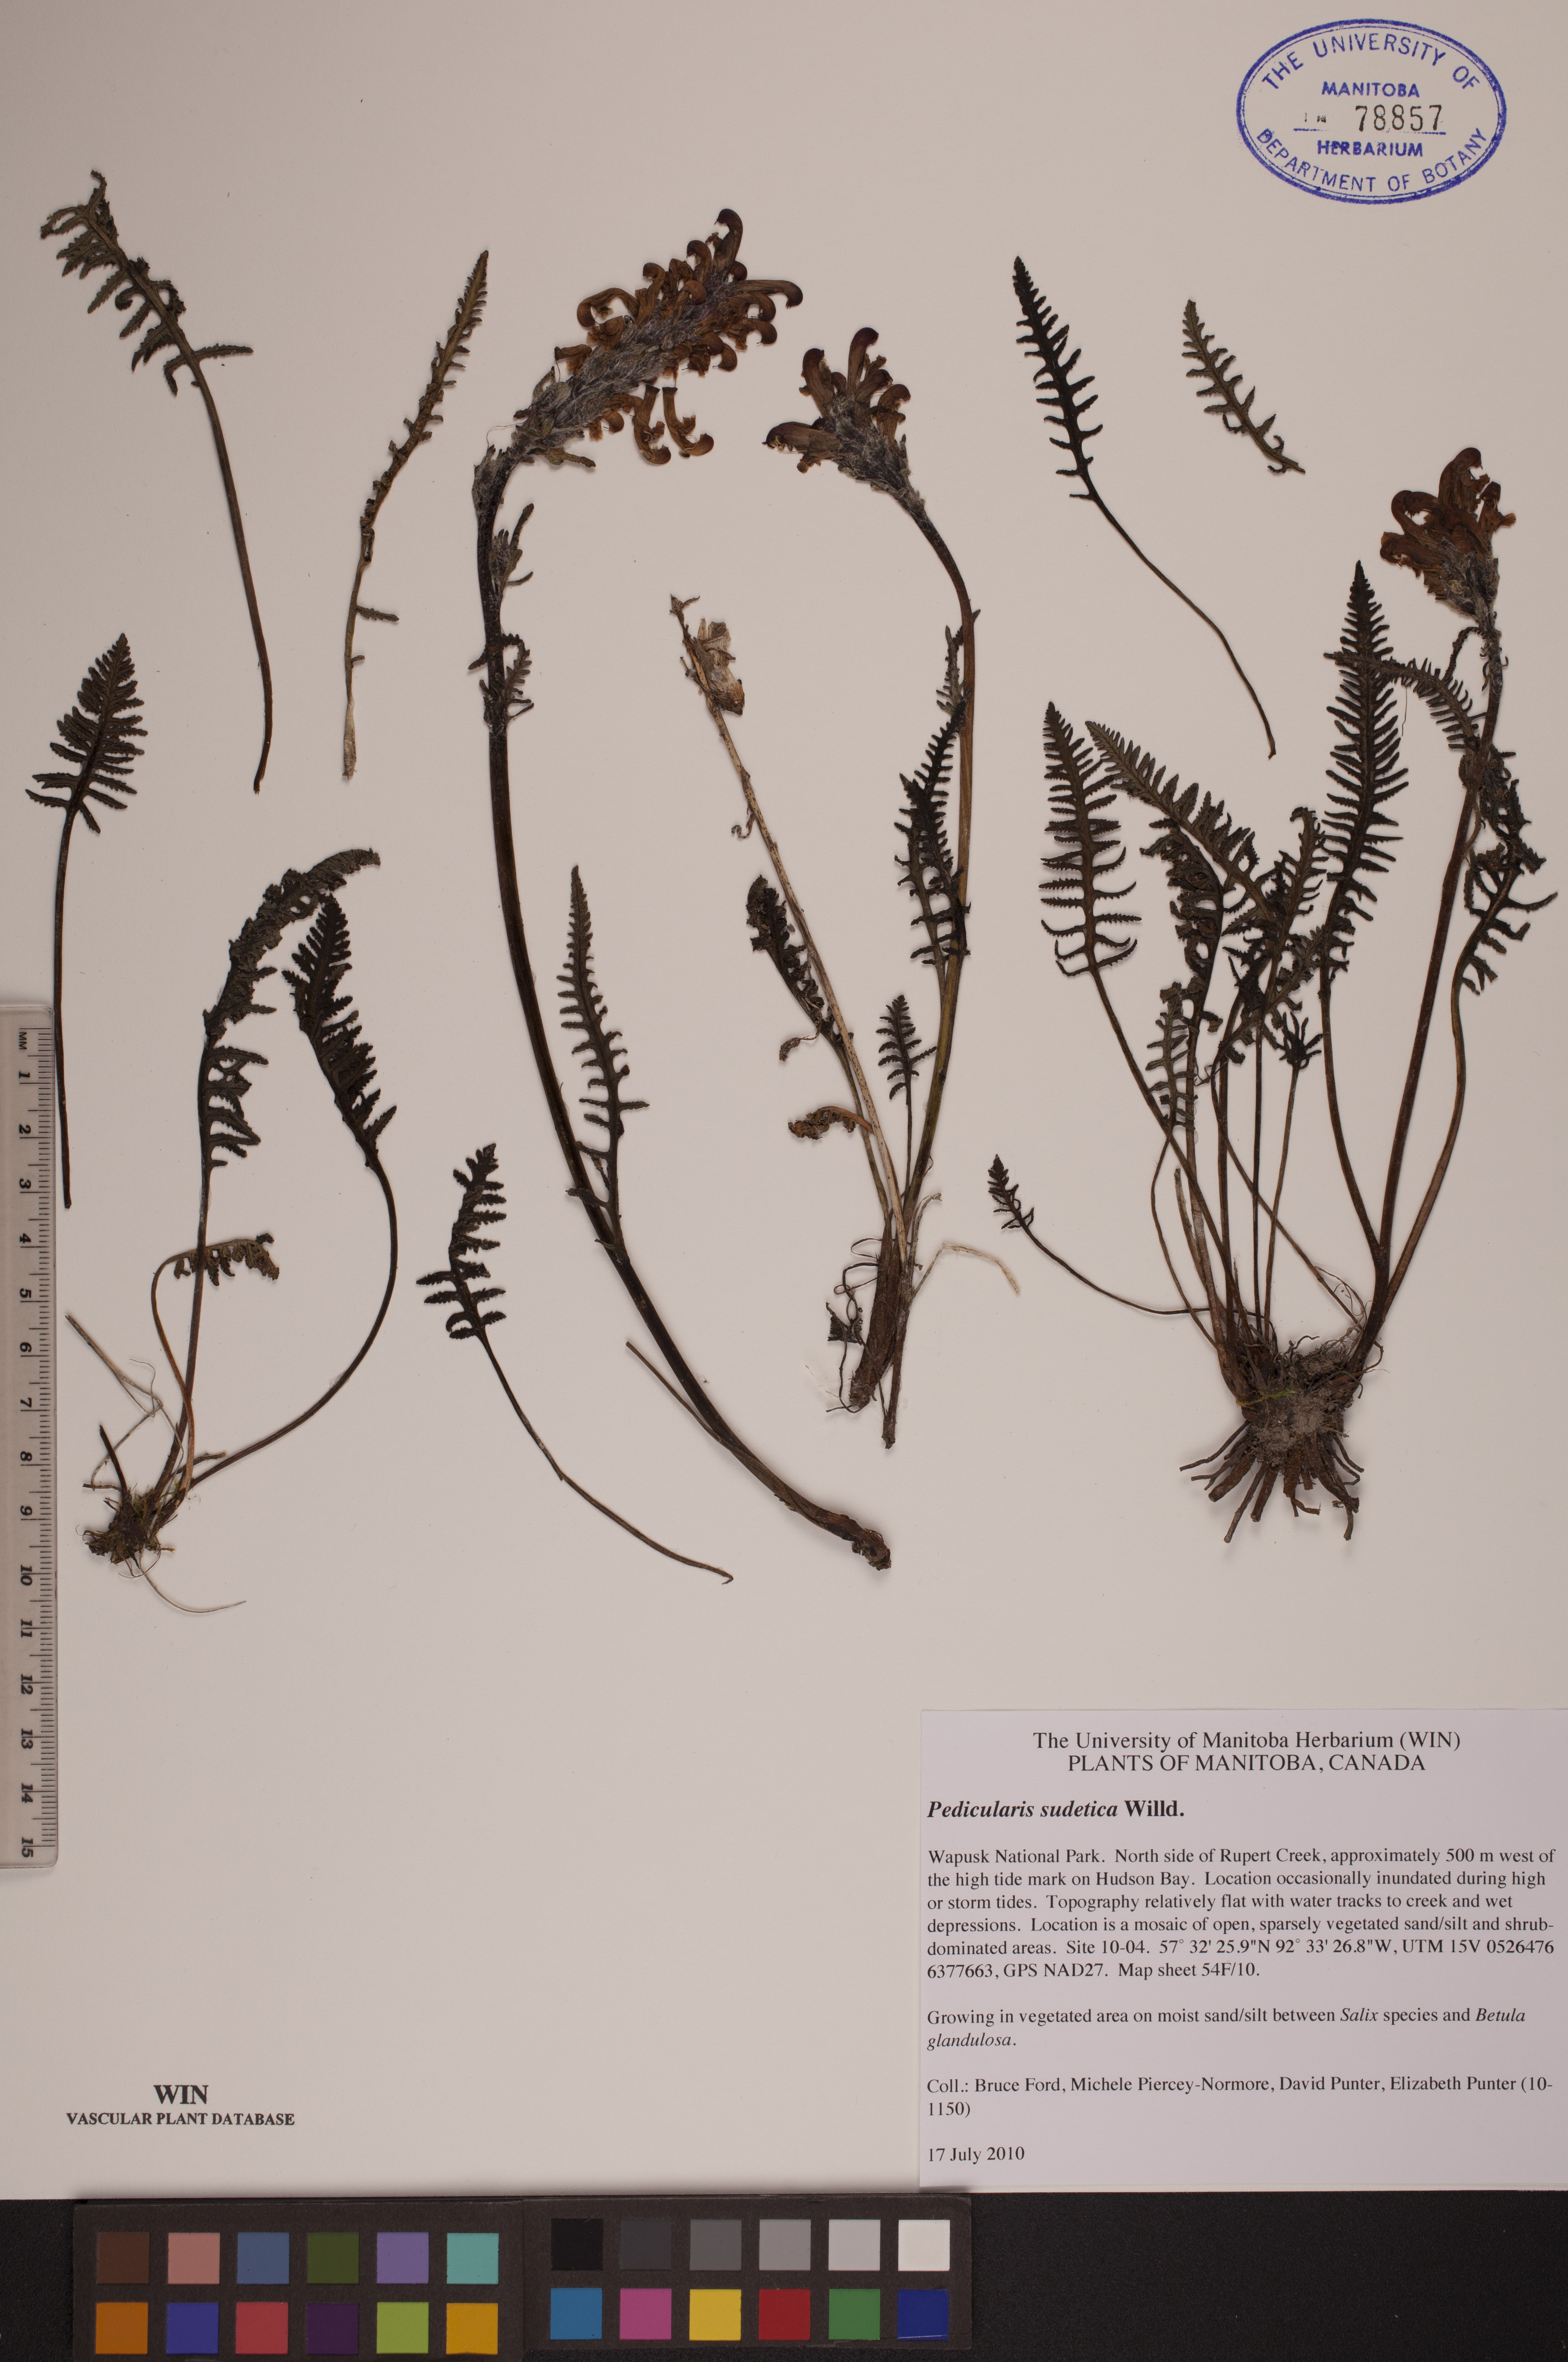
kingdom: Plantae
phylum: Tracheophyta
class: Magnoliopsida
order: Lamiales
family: Orobanchaceae
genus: Pedicularis
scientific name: Pedicularis sudetica
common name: Sudeten lousewort
